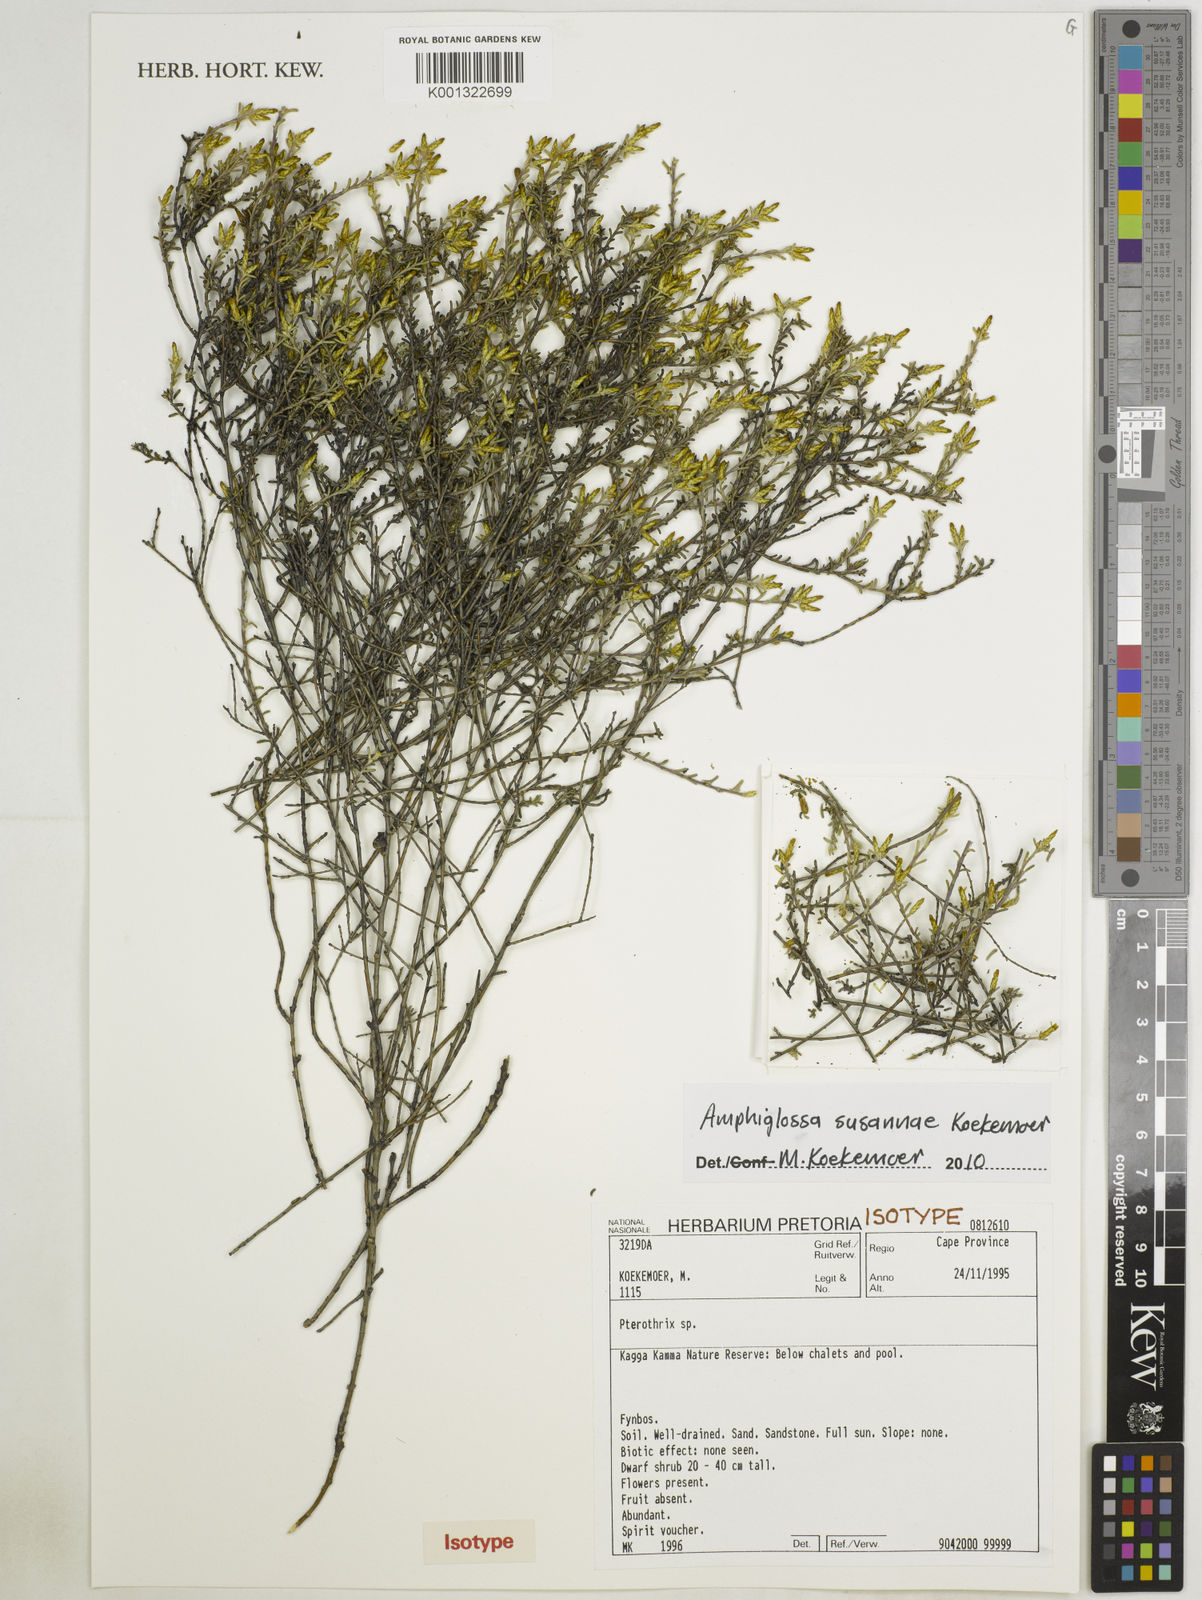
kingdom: Plantae
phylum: Tracheophyta
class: Magnoliopsida
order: Asterales
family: Asteraceae
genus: Amphiglossa
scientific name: Amphiglossa susannae
